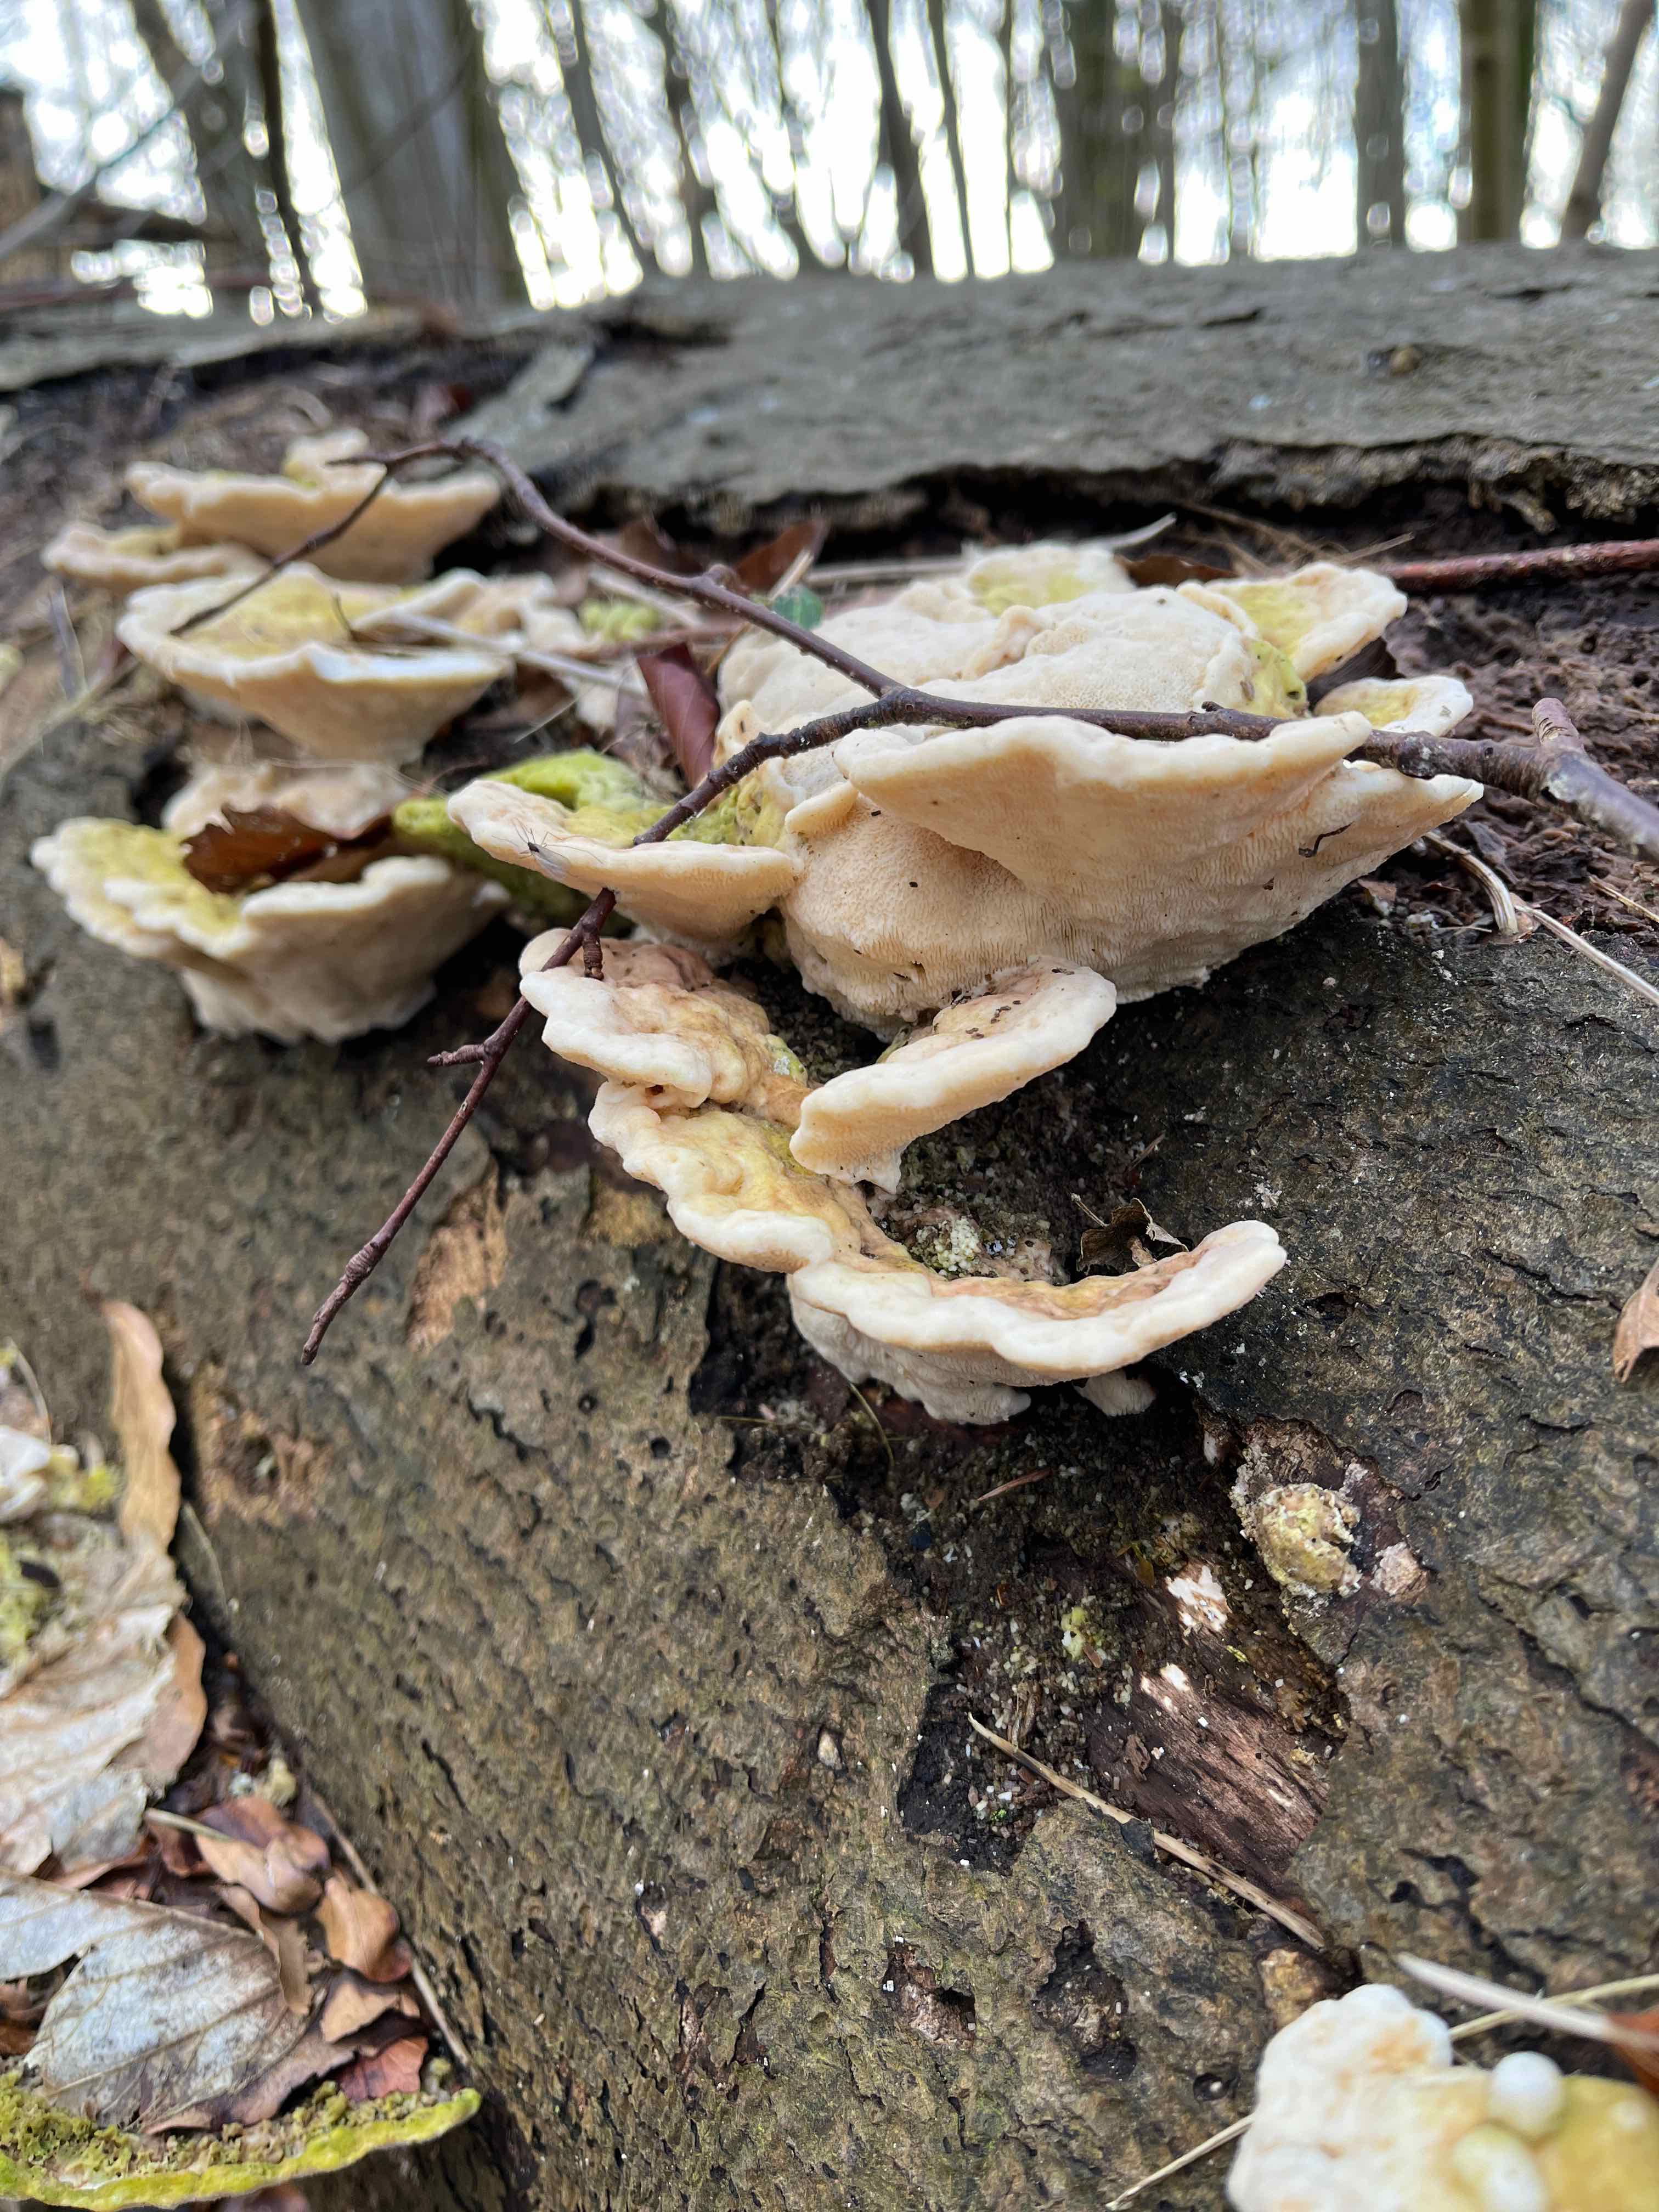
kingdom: Fungi
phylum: Basidiomycota
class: Agaricomycetes
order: Polyporales
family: Polyporaceae
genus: Trametes
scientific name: Trametes gibbosa
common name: puklet læderporesvamp
